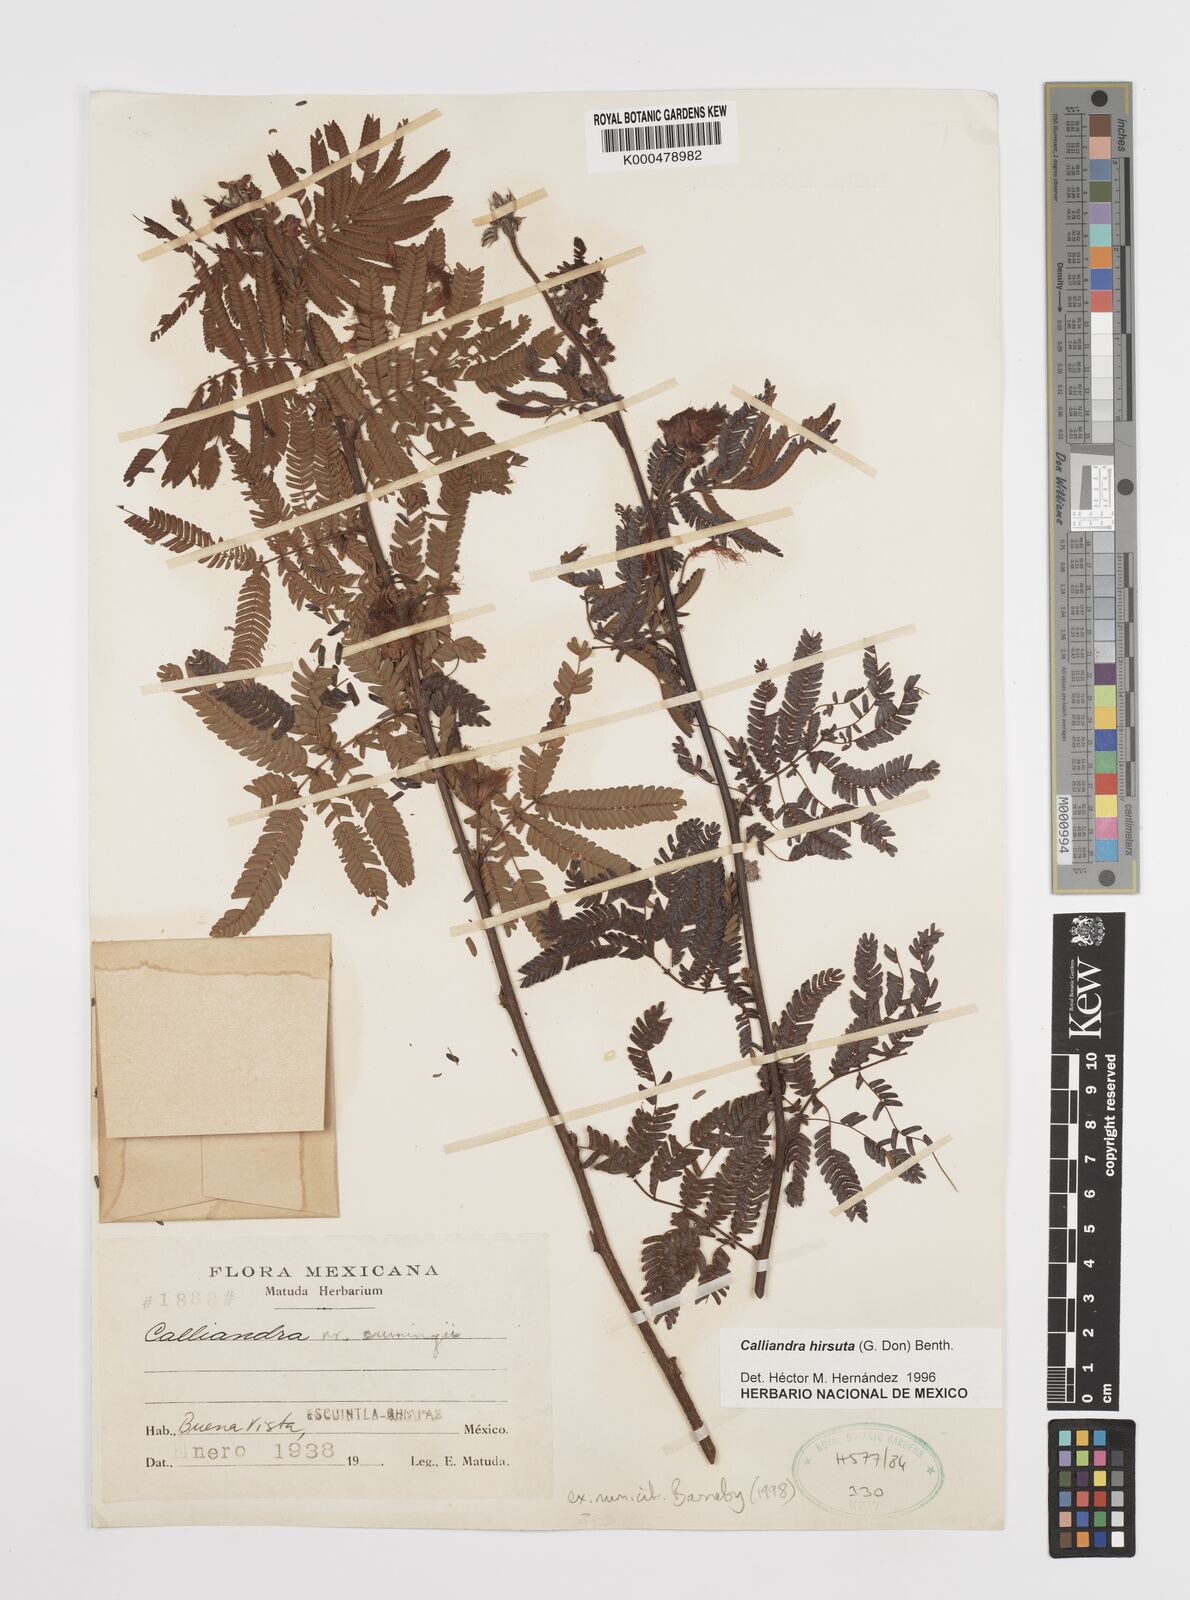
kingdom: Plantae
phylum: Tracheophyta
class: Magnoliopsida
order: Fabales
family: Fabaceae
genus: Calliandra
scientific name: Calliandra hirsuta
